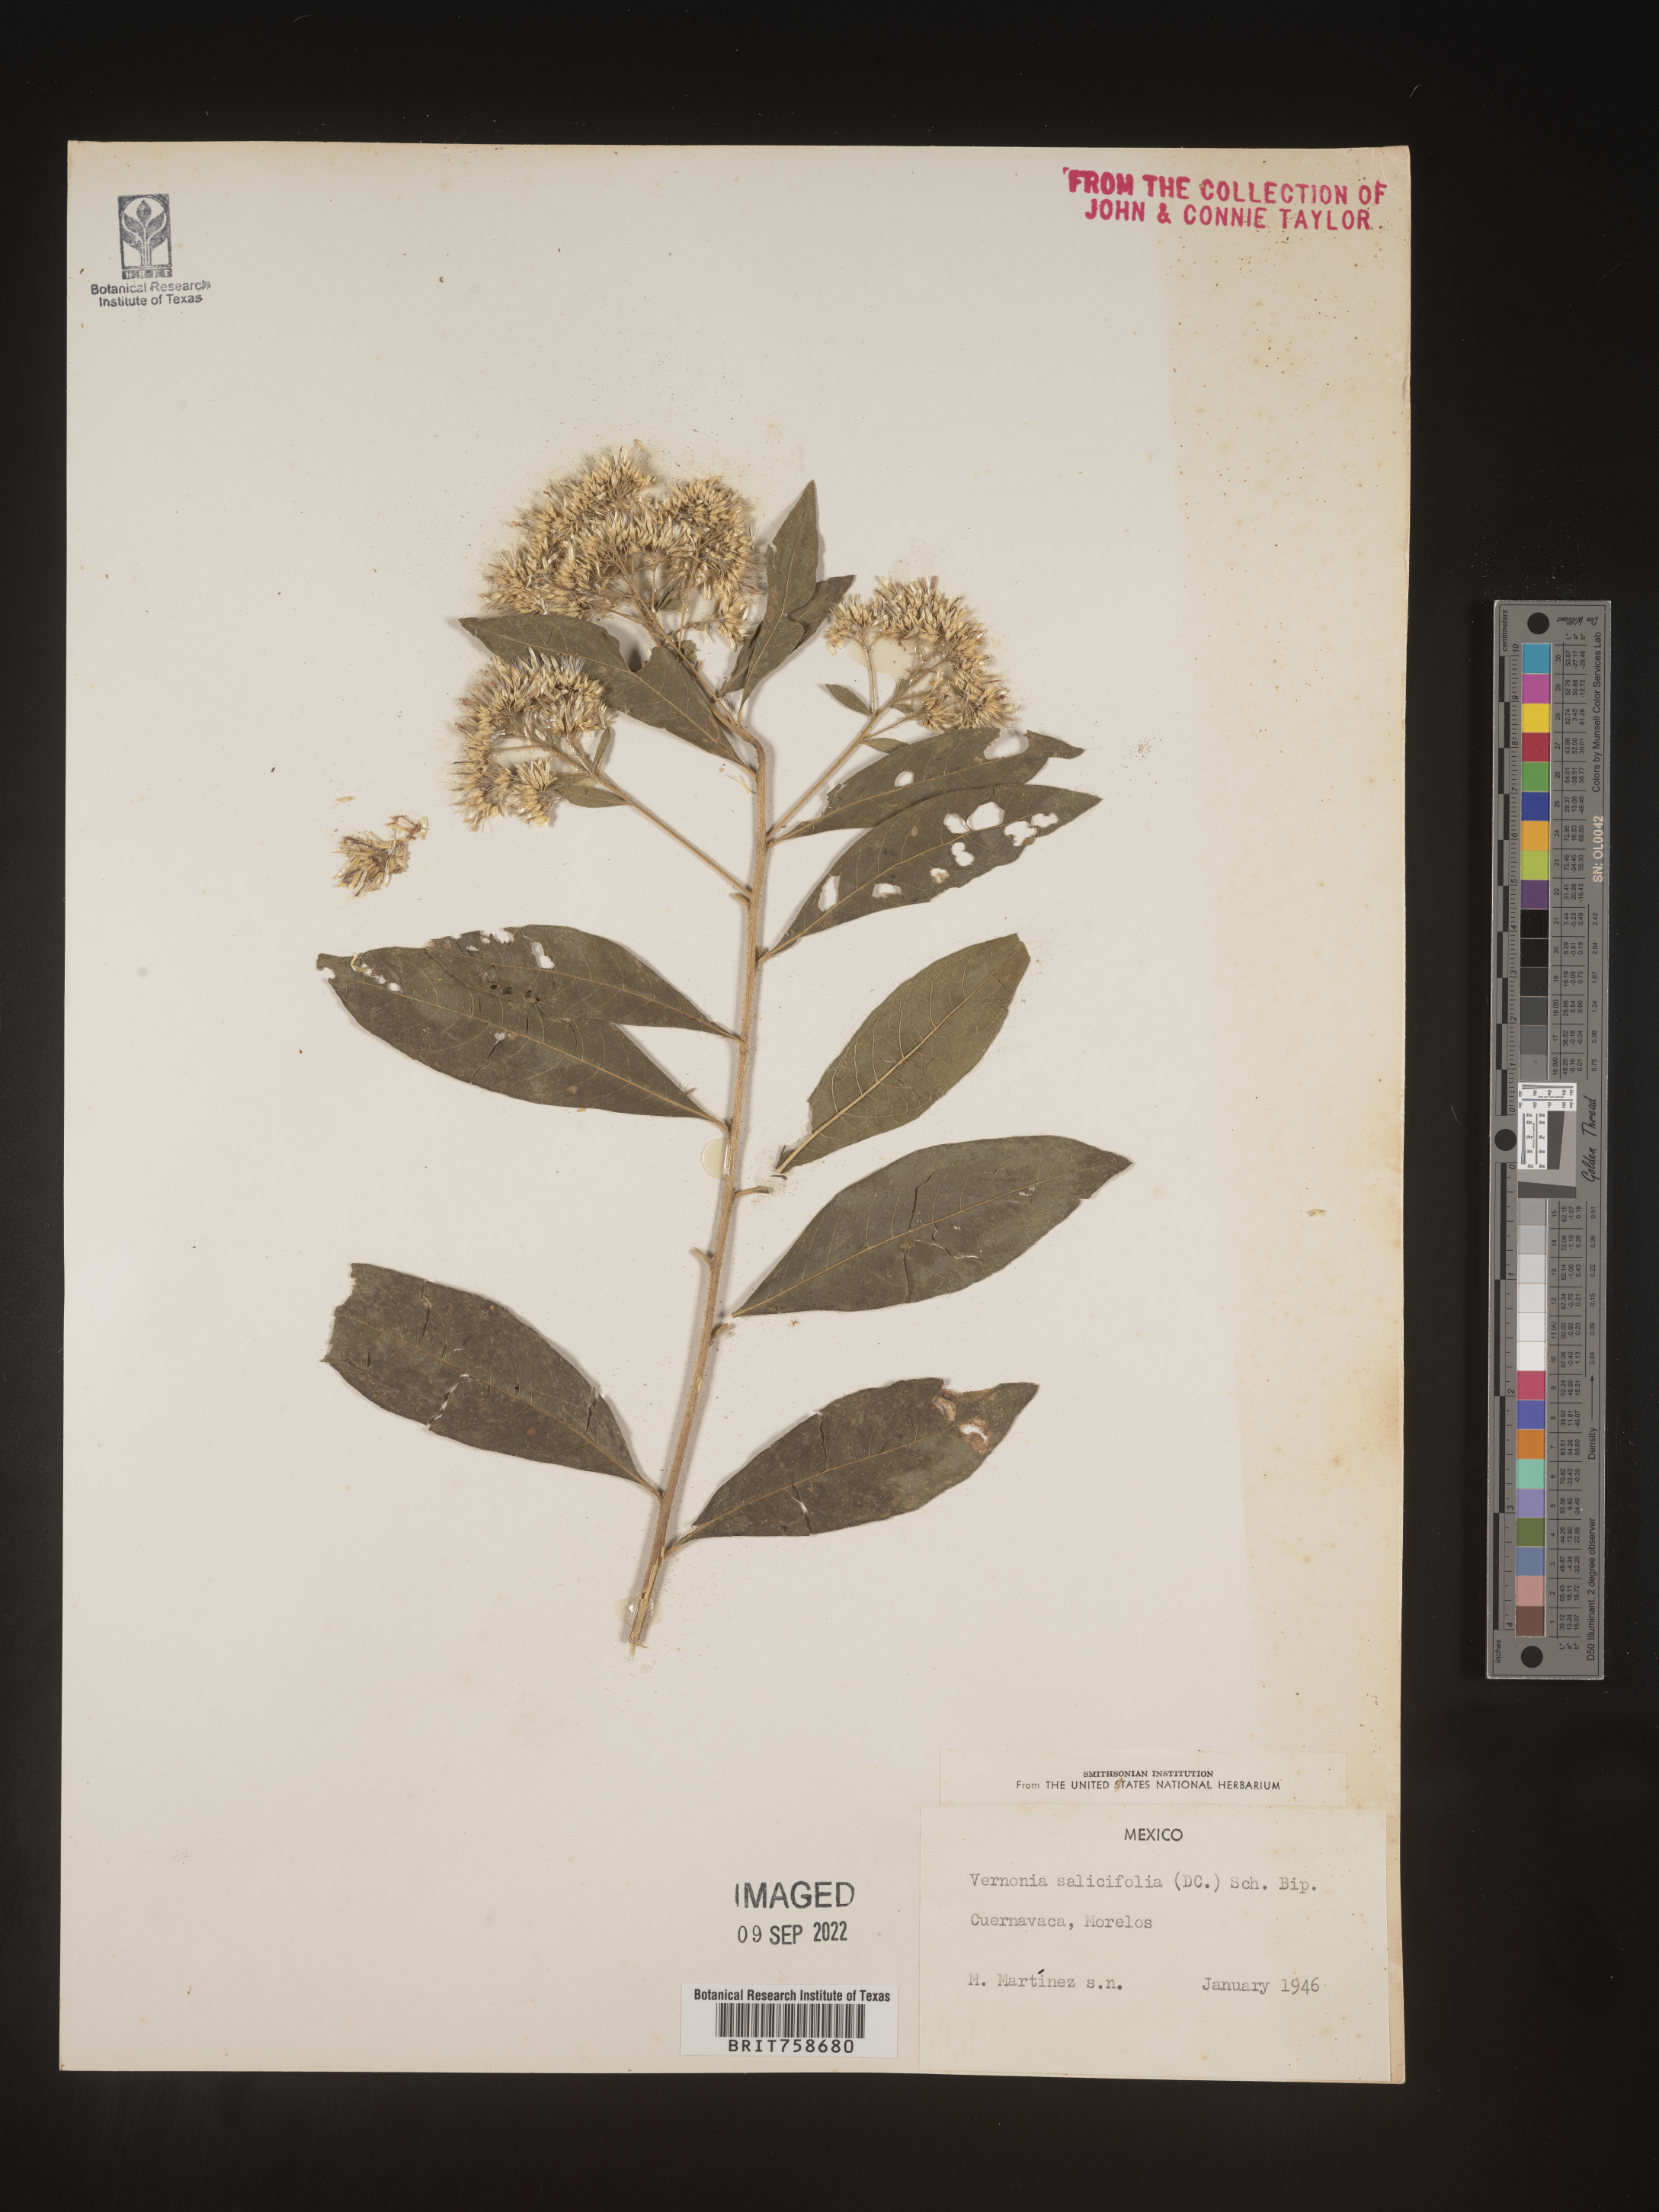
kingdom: Plantae
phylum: Tracheophyta
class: Magnoliopsida
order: Asterales
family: Asteraceae
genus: Vernonia
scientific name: Vernonia
